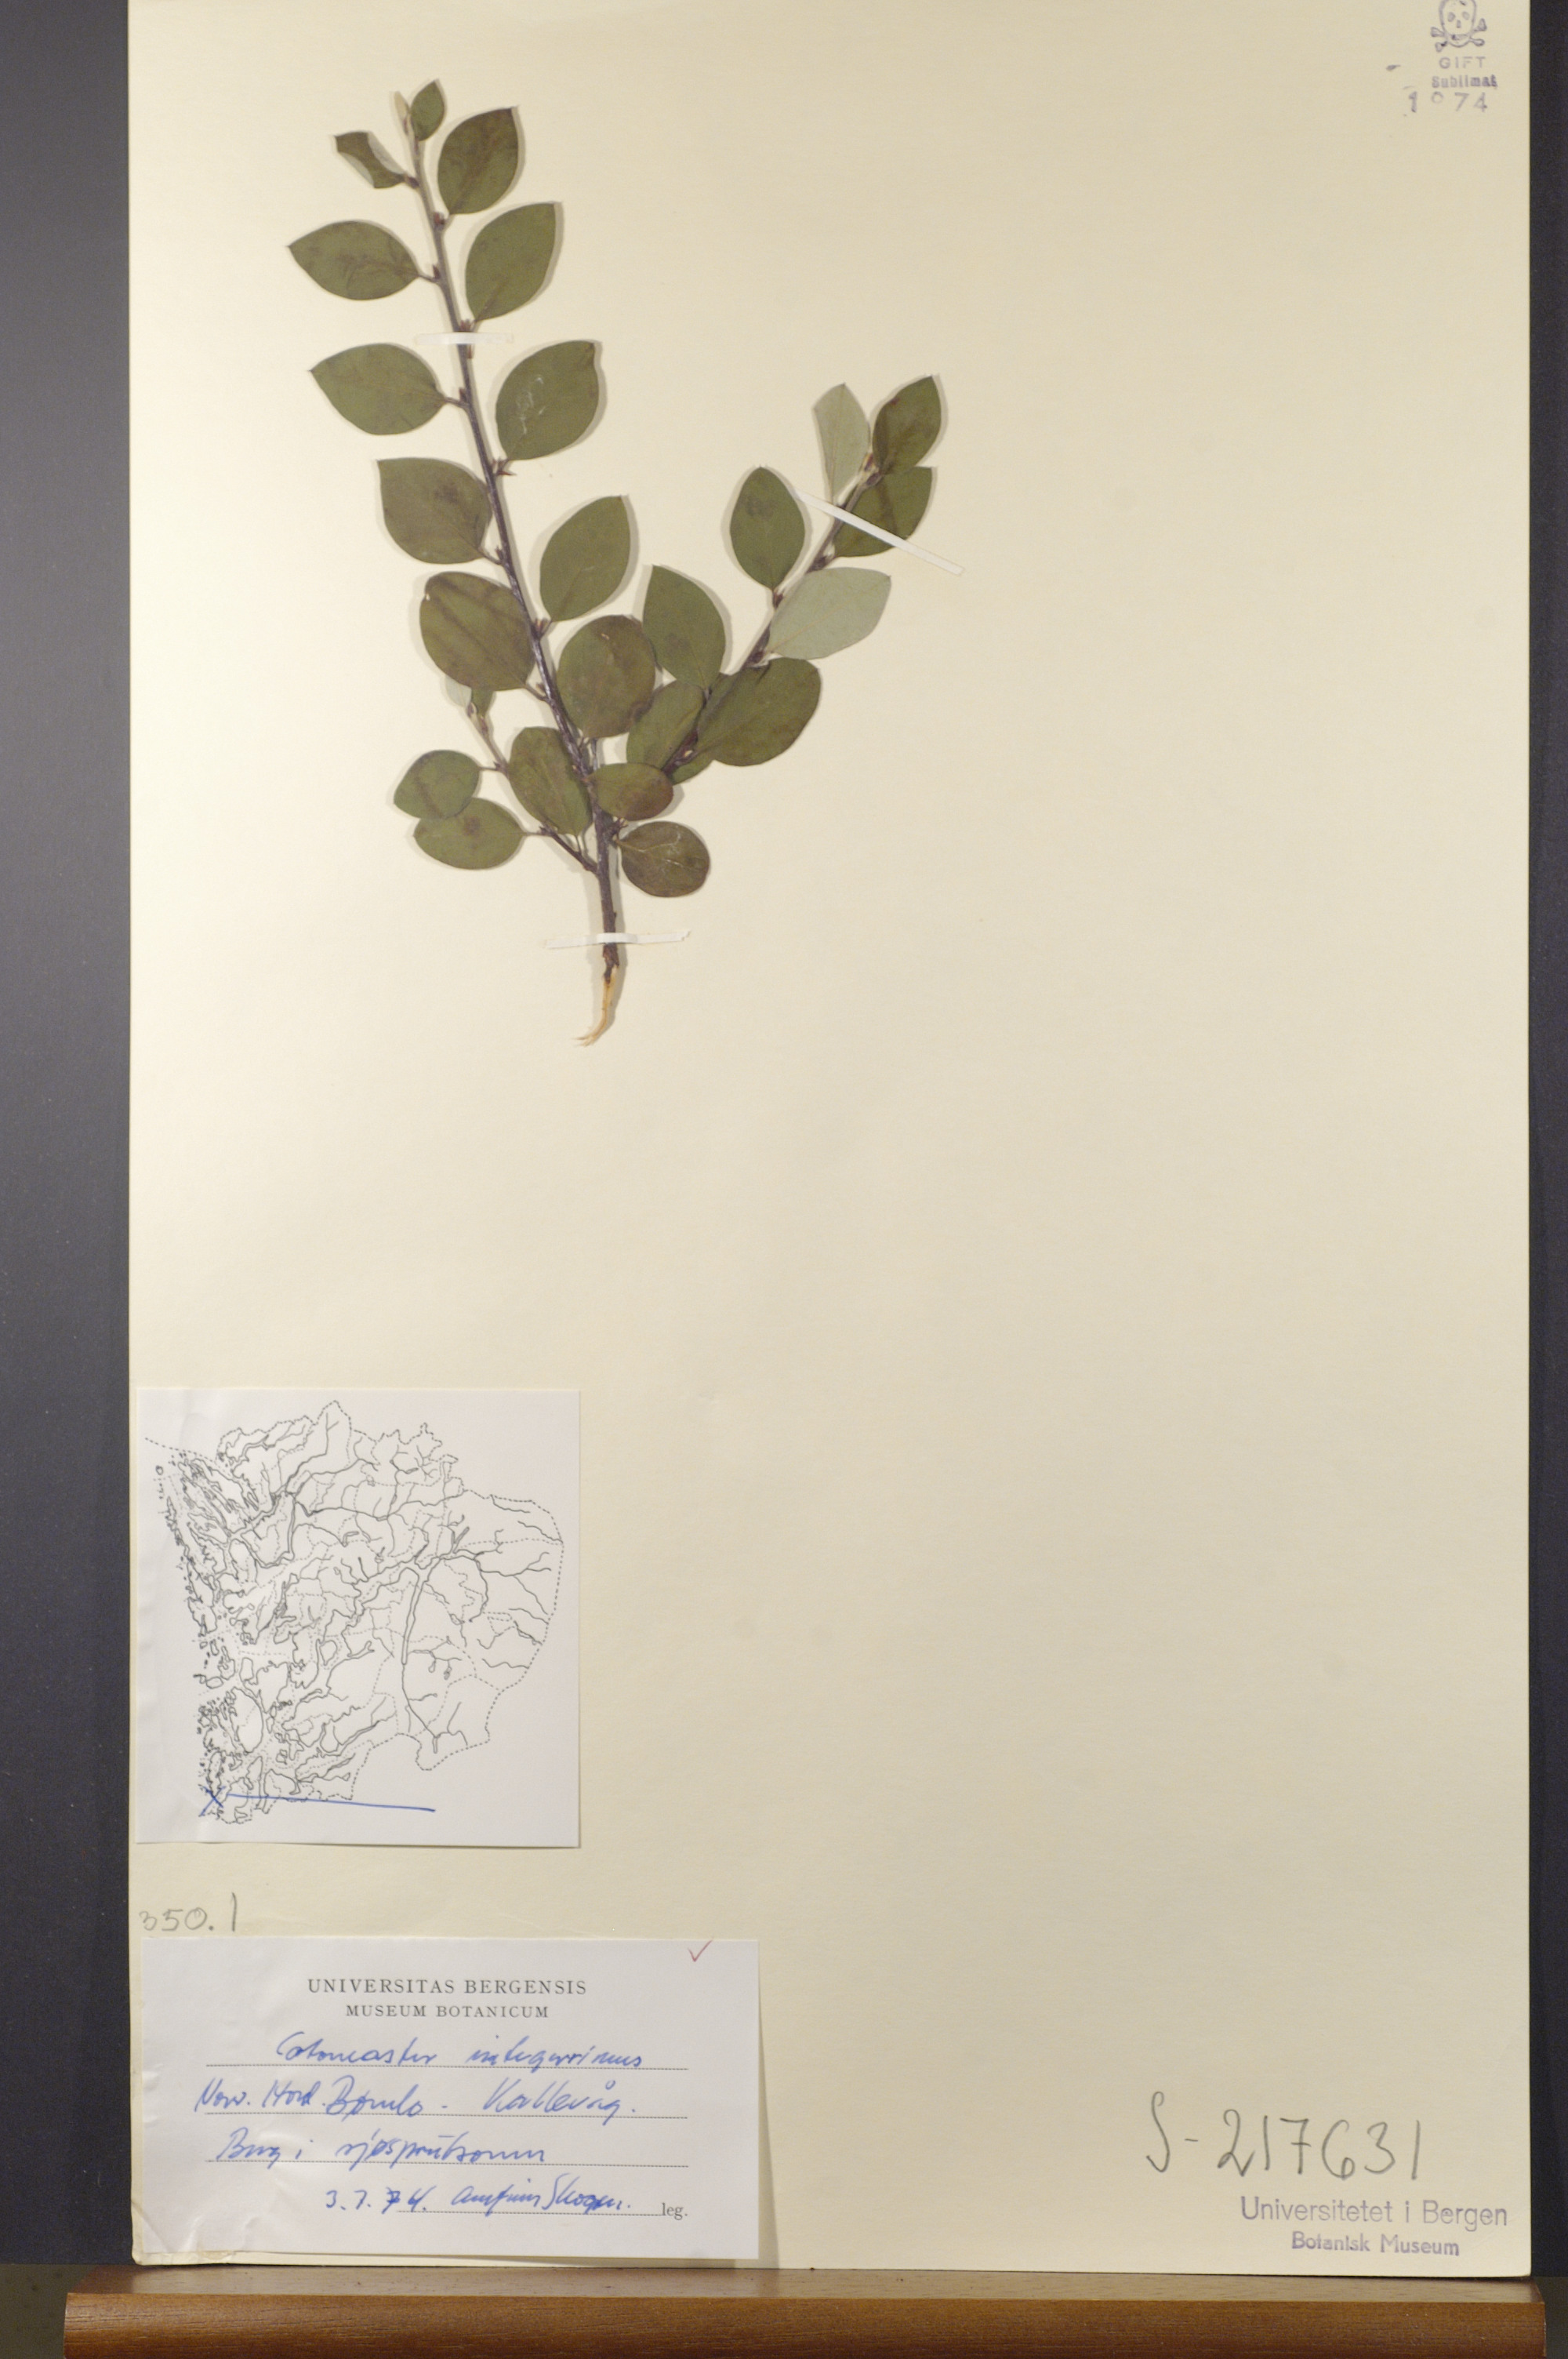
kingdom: Plantae
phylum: Tracheophyta
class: Magnoliopsida
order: Rosales
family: Rosaceae
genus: Cotoneaster
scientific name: Cotoneaster integerrimus
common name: Wild cotoneaster
